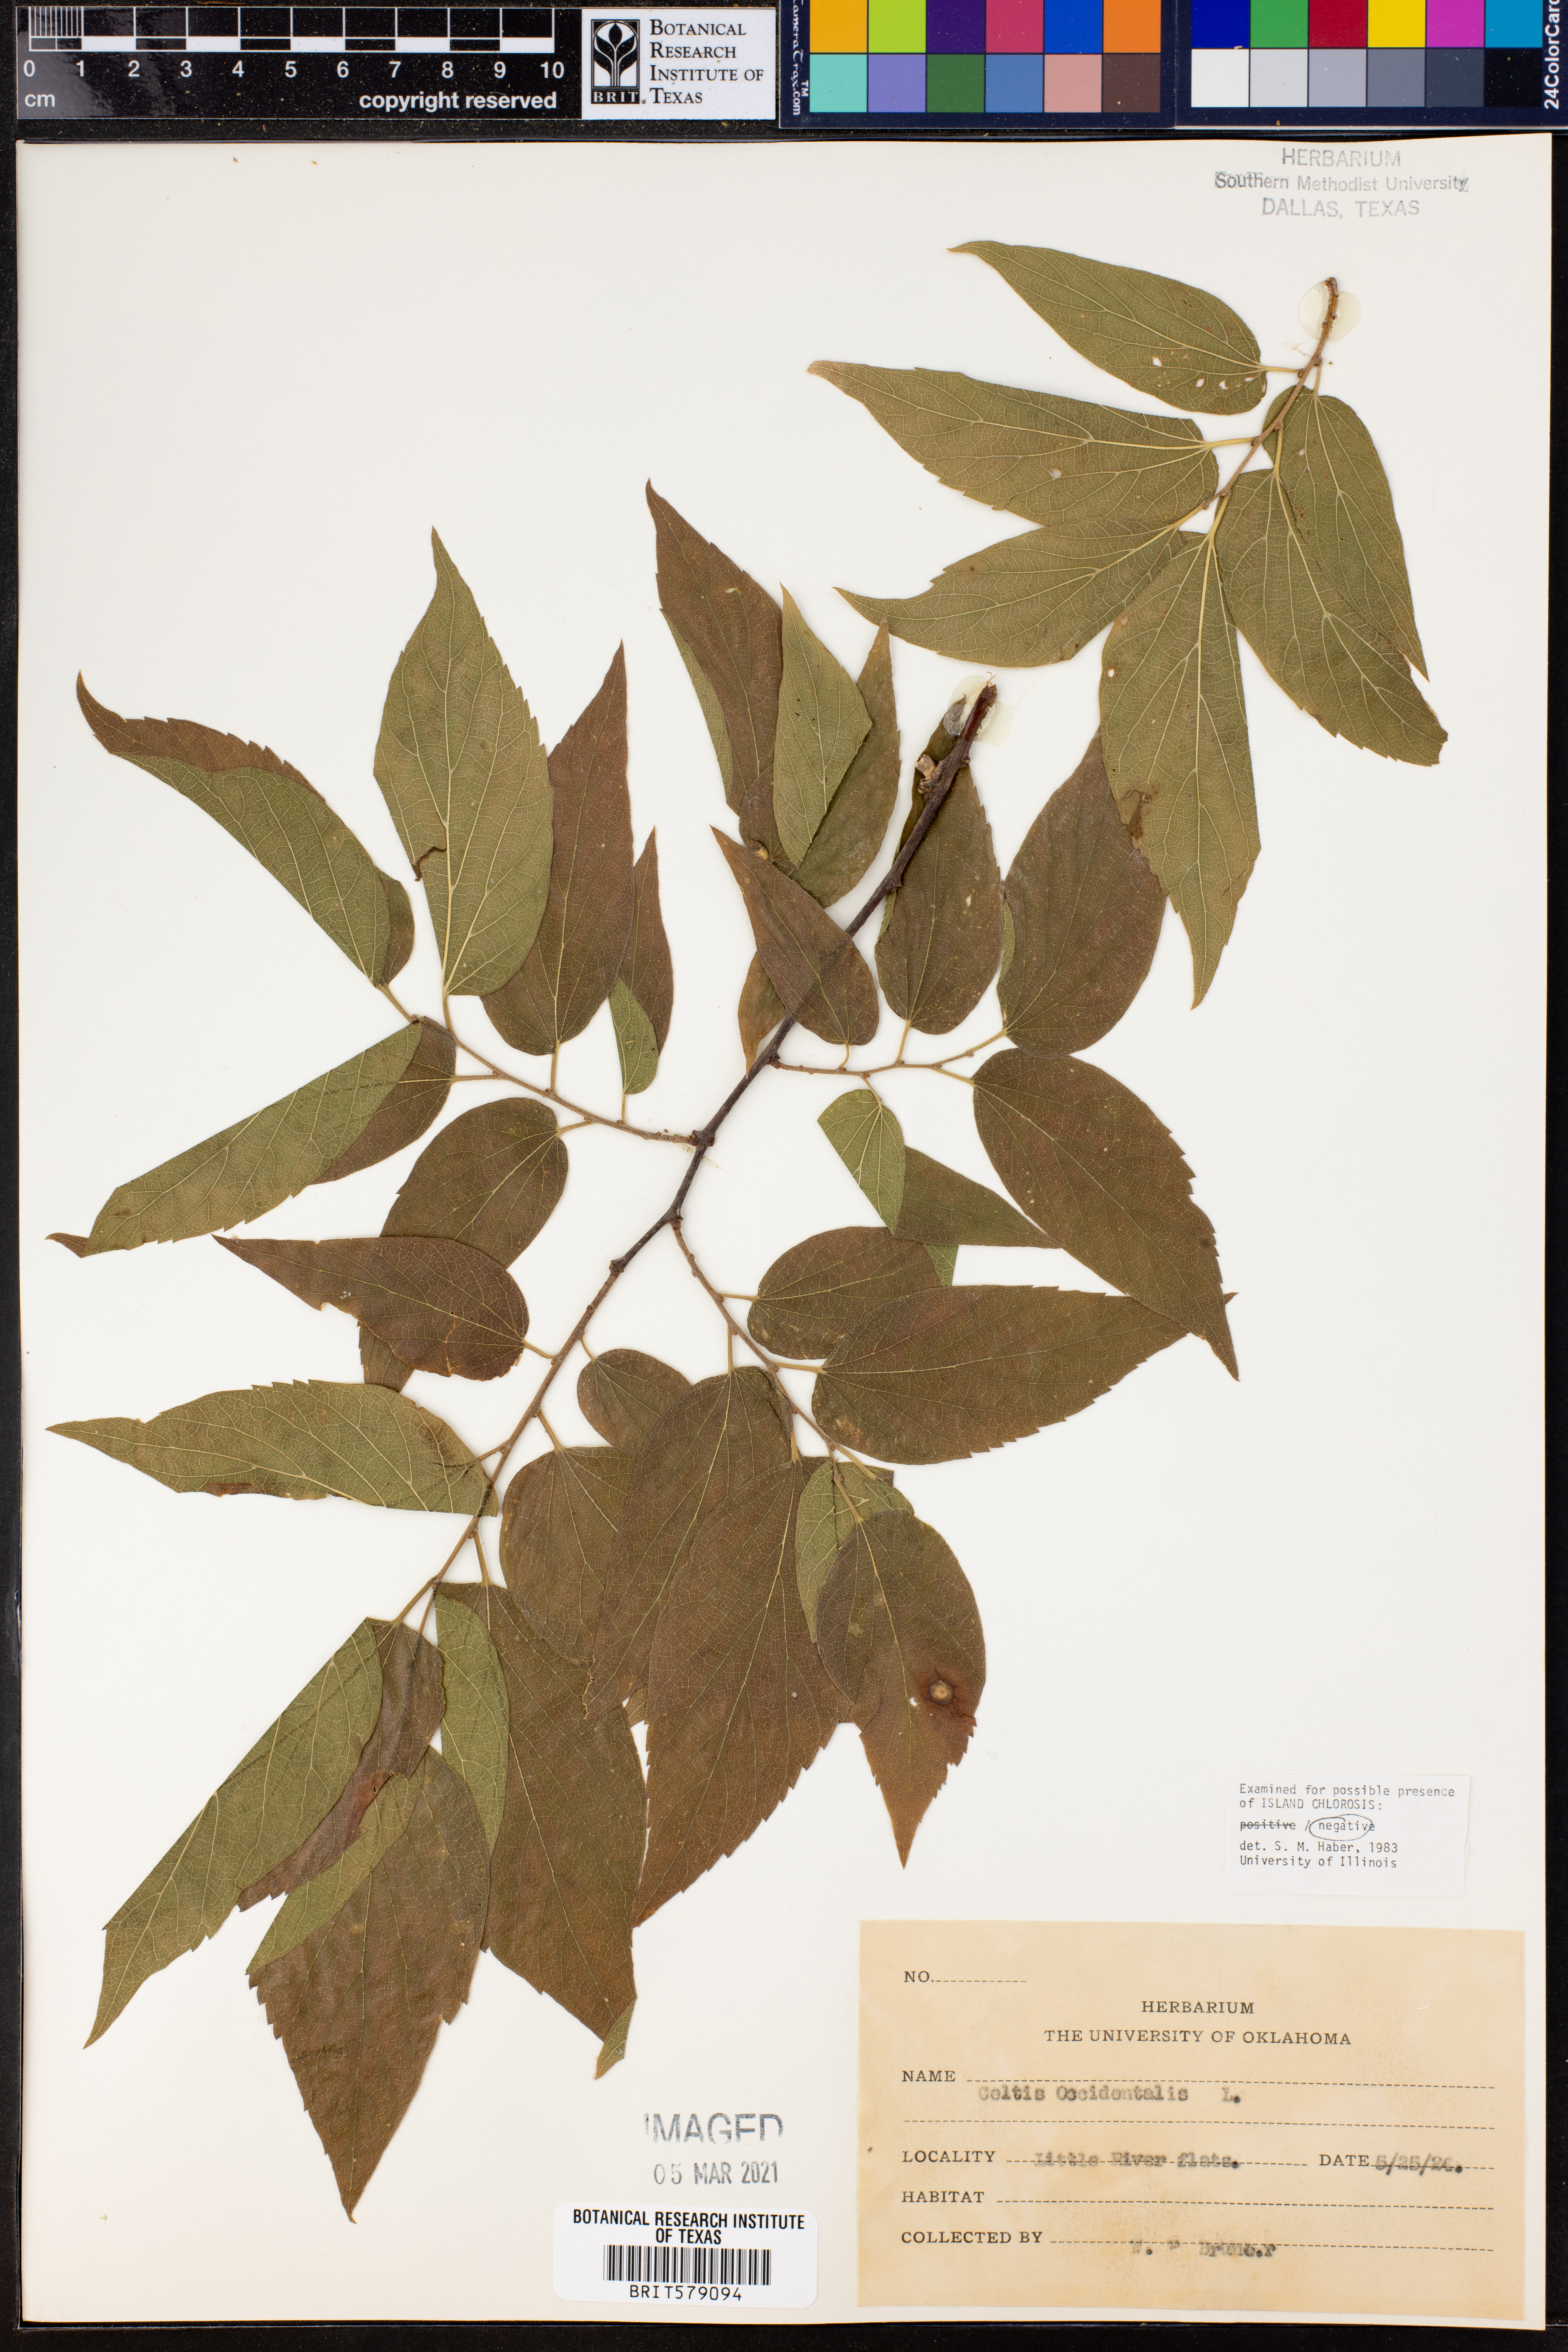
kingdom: Plantae
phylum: Tracheophyta
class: Magnoliopsida
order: Rosales
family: Cannabaceae
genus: Celtis
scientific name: Celtis occidentalis
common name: Common hackberry
